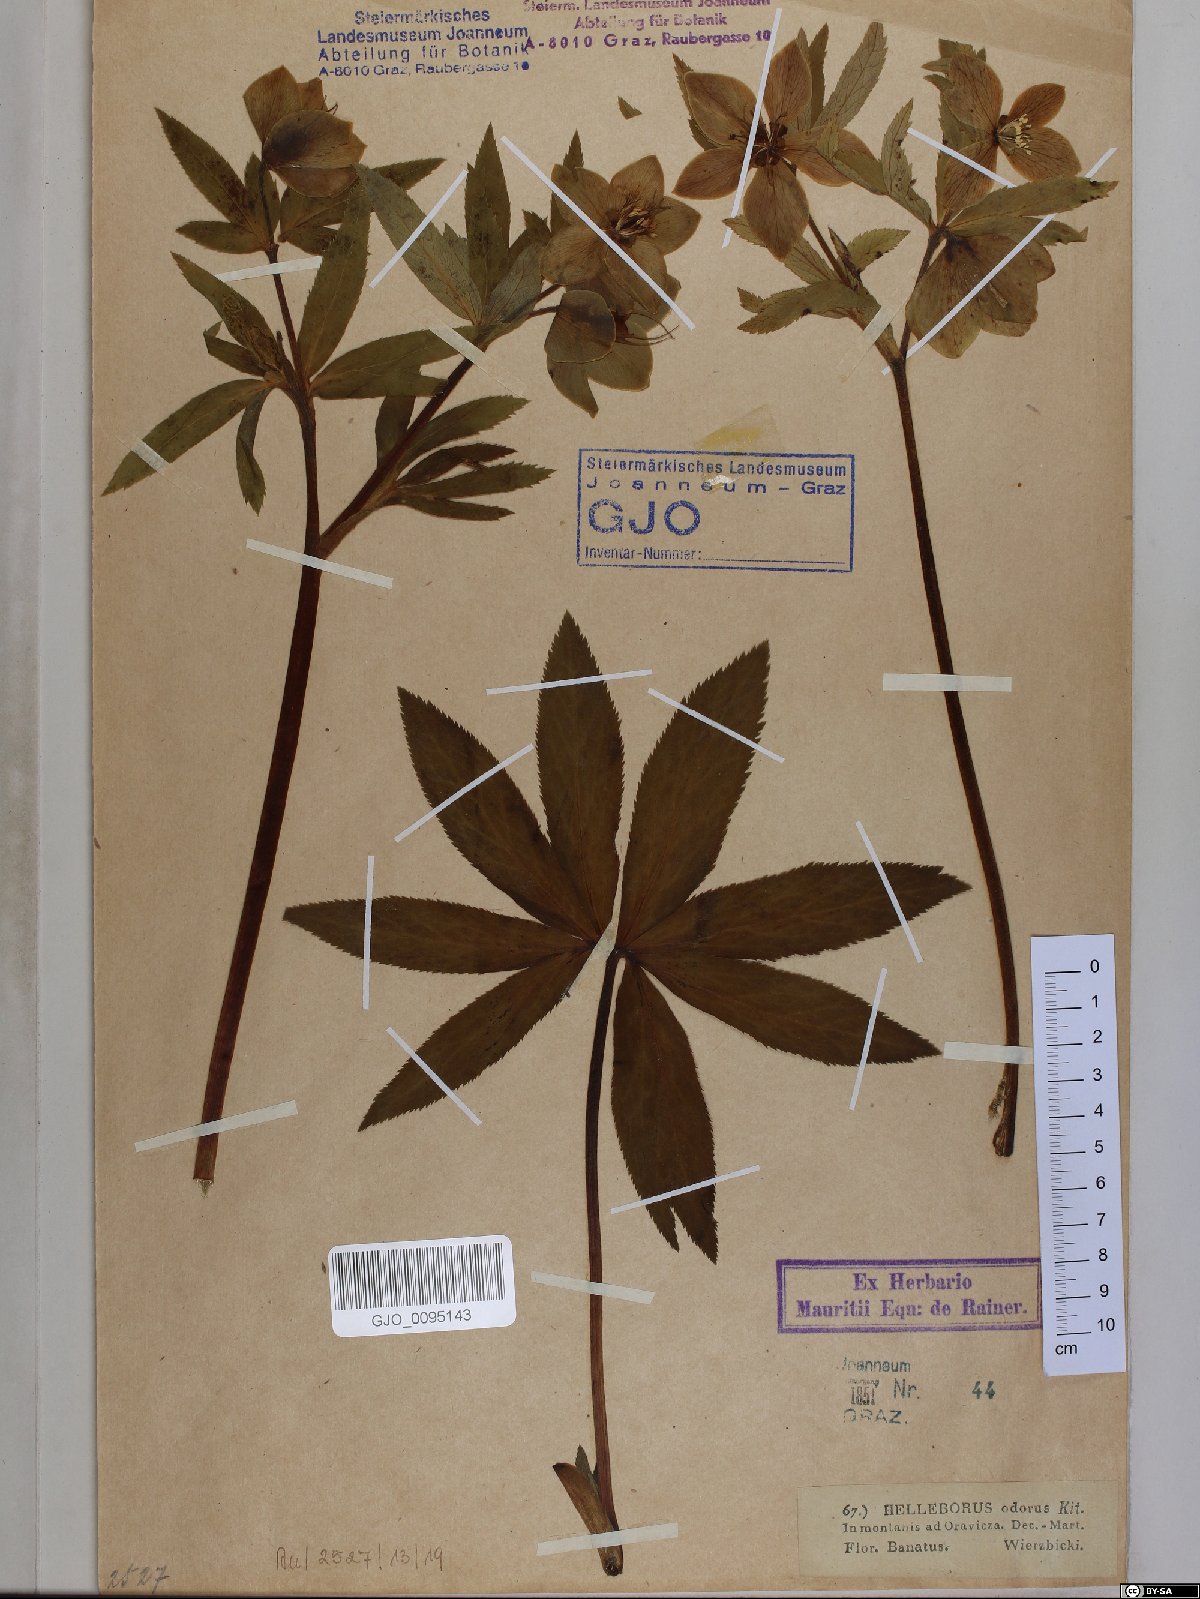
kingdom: Plantae
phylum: Tracheophyta
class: Magnoliopsida
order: Ranunculales
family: Ranunculaceae
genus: Helleborus
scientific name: Helleborus odorus
